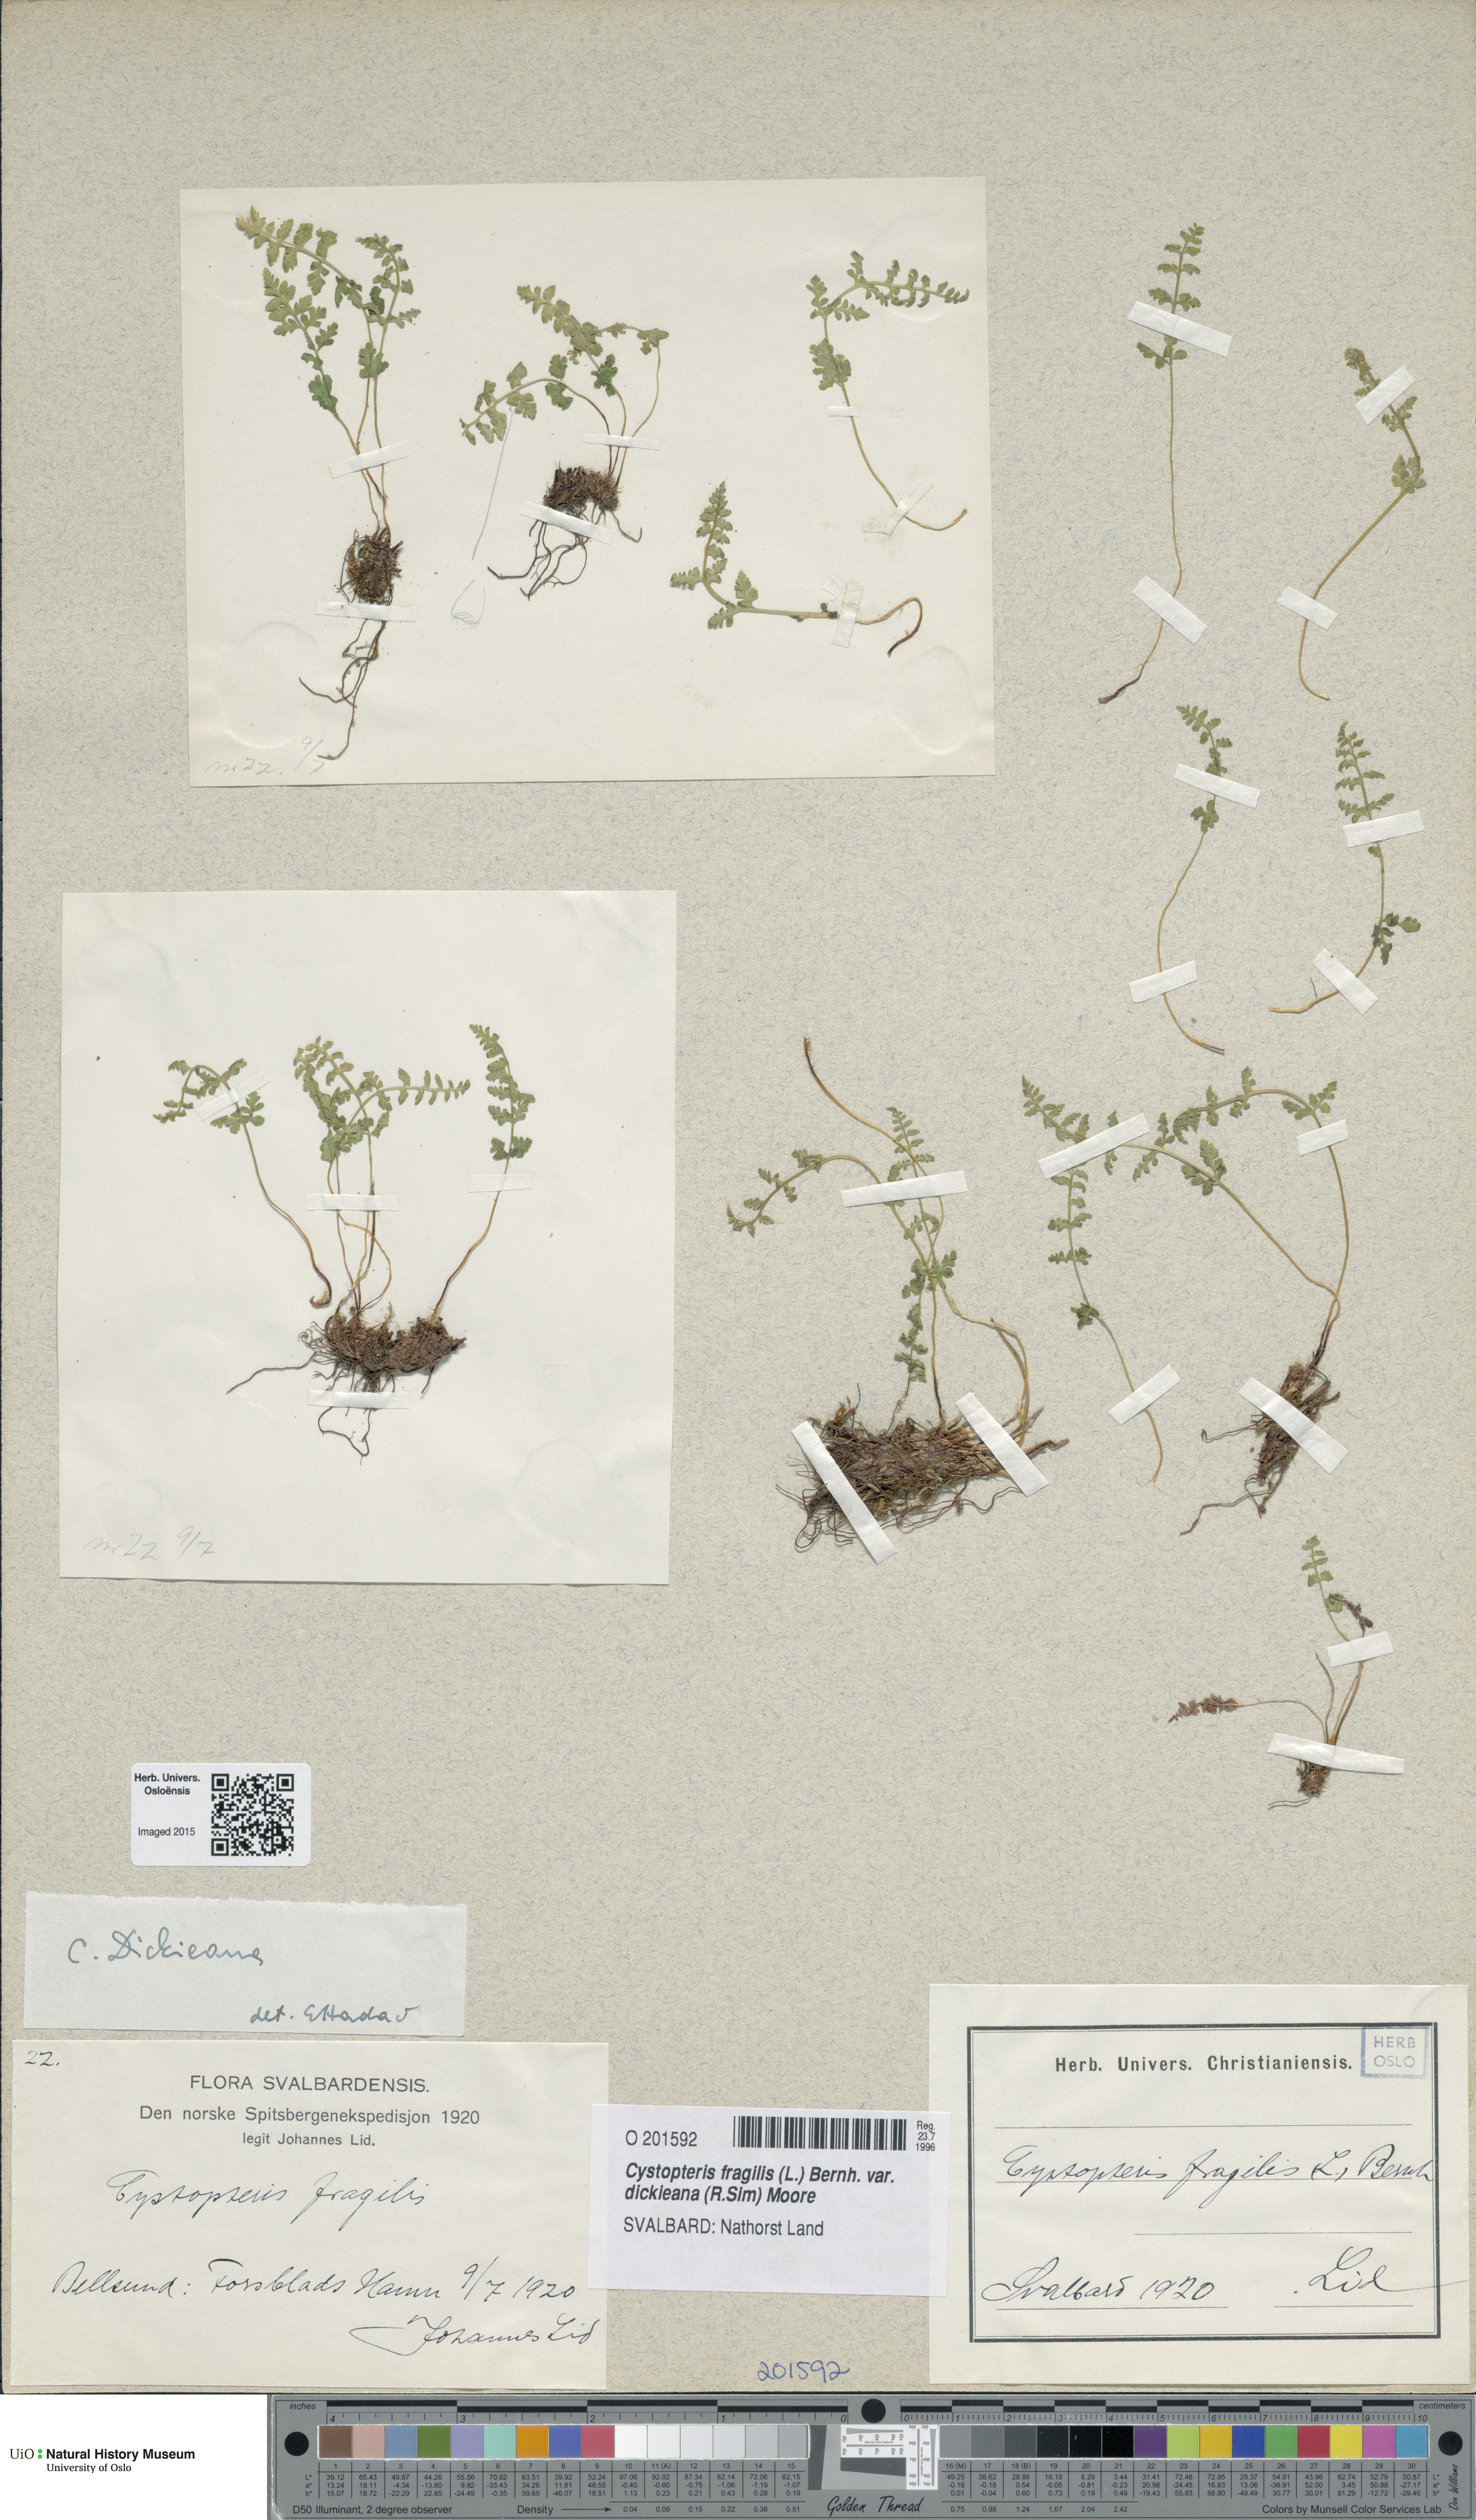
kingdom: Plantae
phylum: Tracheophyta
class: Polypodiopsida
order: Polypodiales
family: Cystopteridaceae
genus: Cystopteris
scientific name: Cystopteris dickieana
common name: Dickie's bladder-fern
